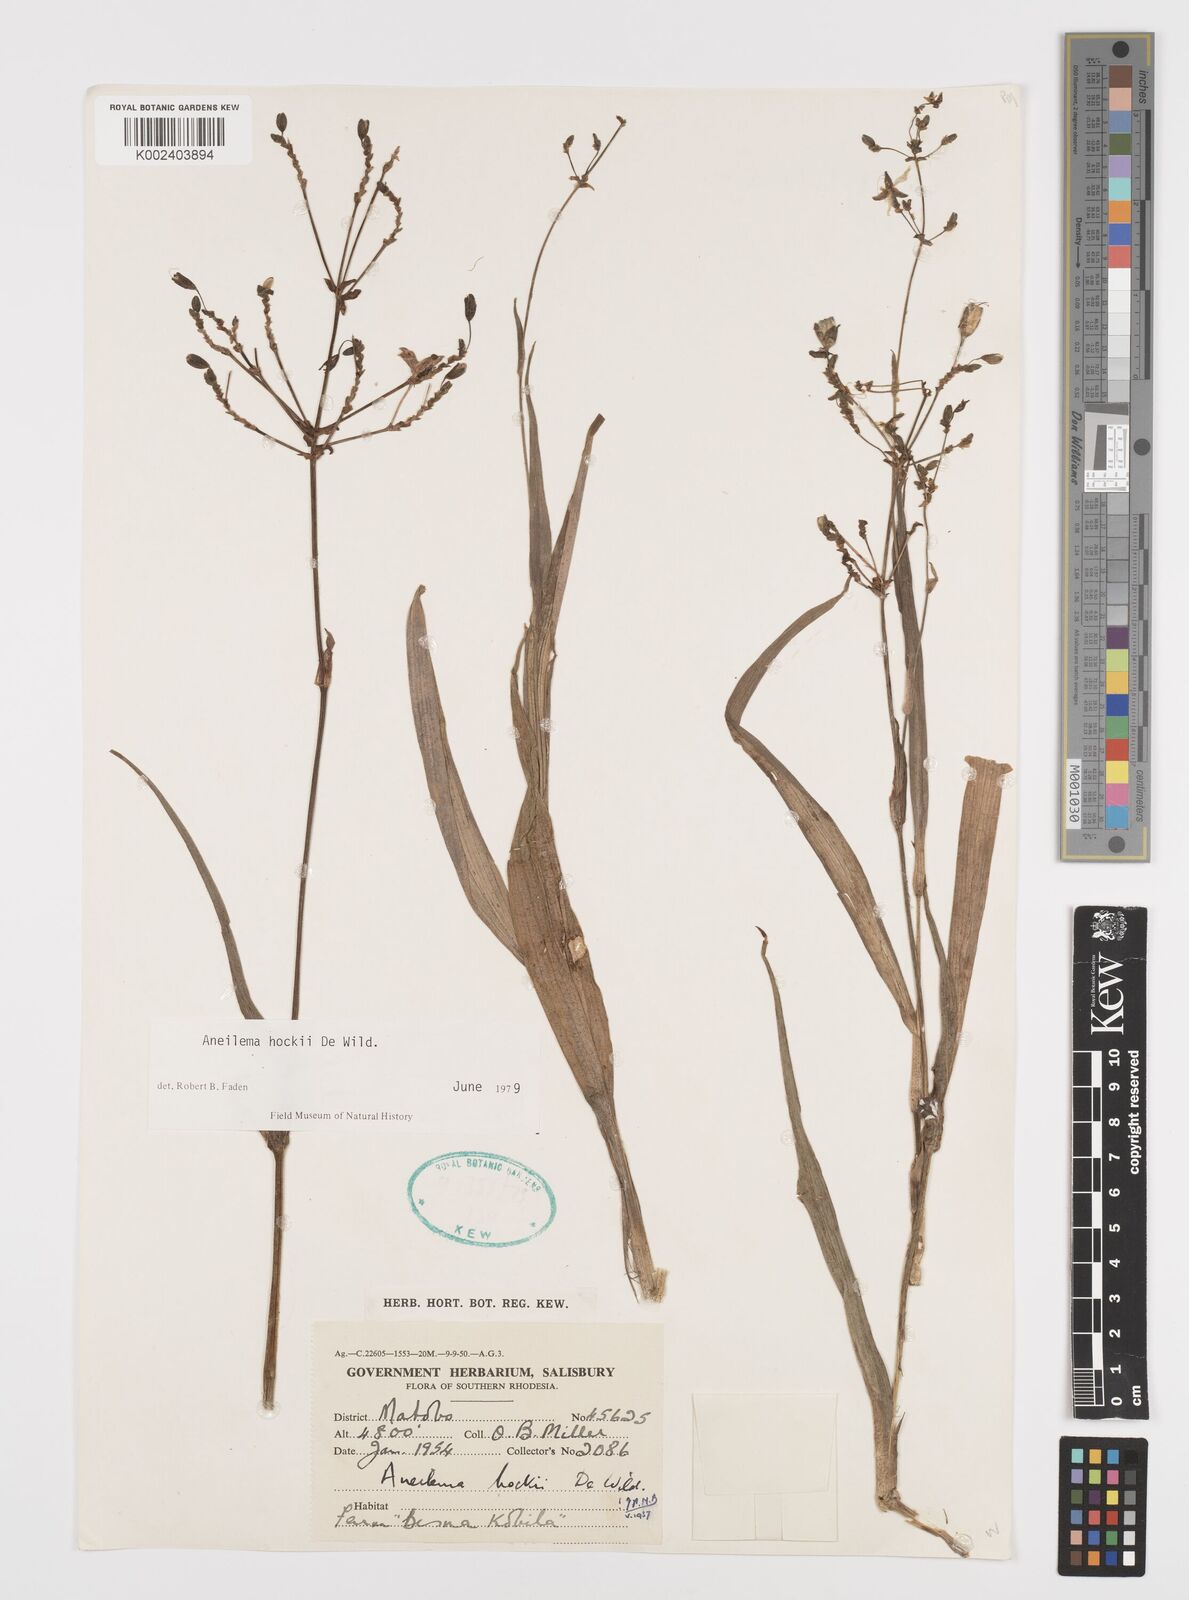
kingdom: Plantae
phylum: Tracheophyta
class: Liliopsida
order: Commelinales
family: Commelinaceae
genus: Aneilema
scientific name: Aneilema hockii
